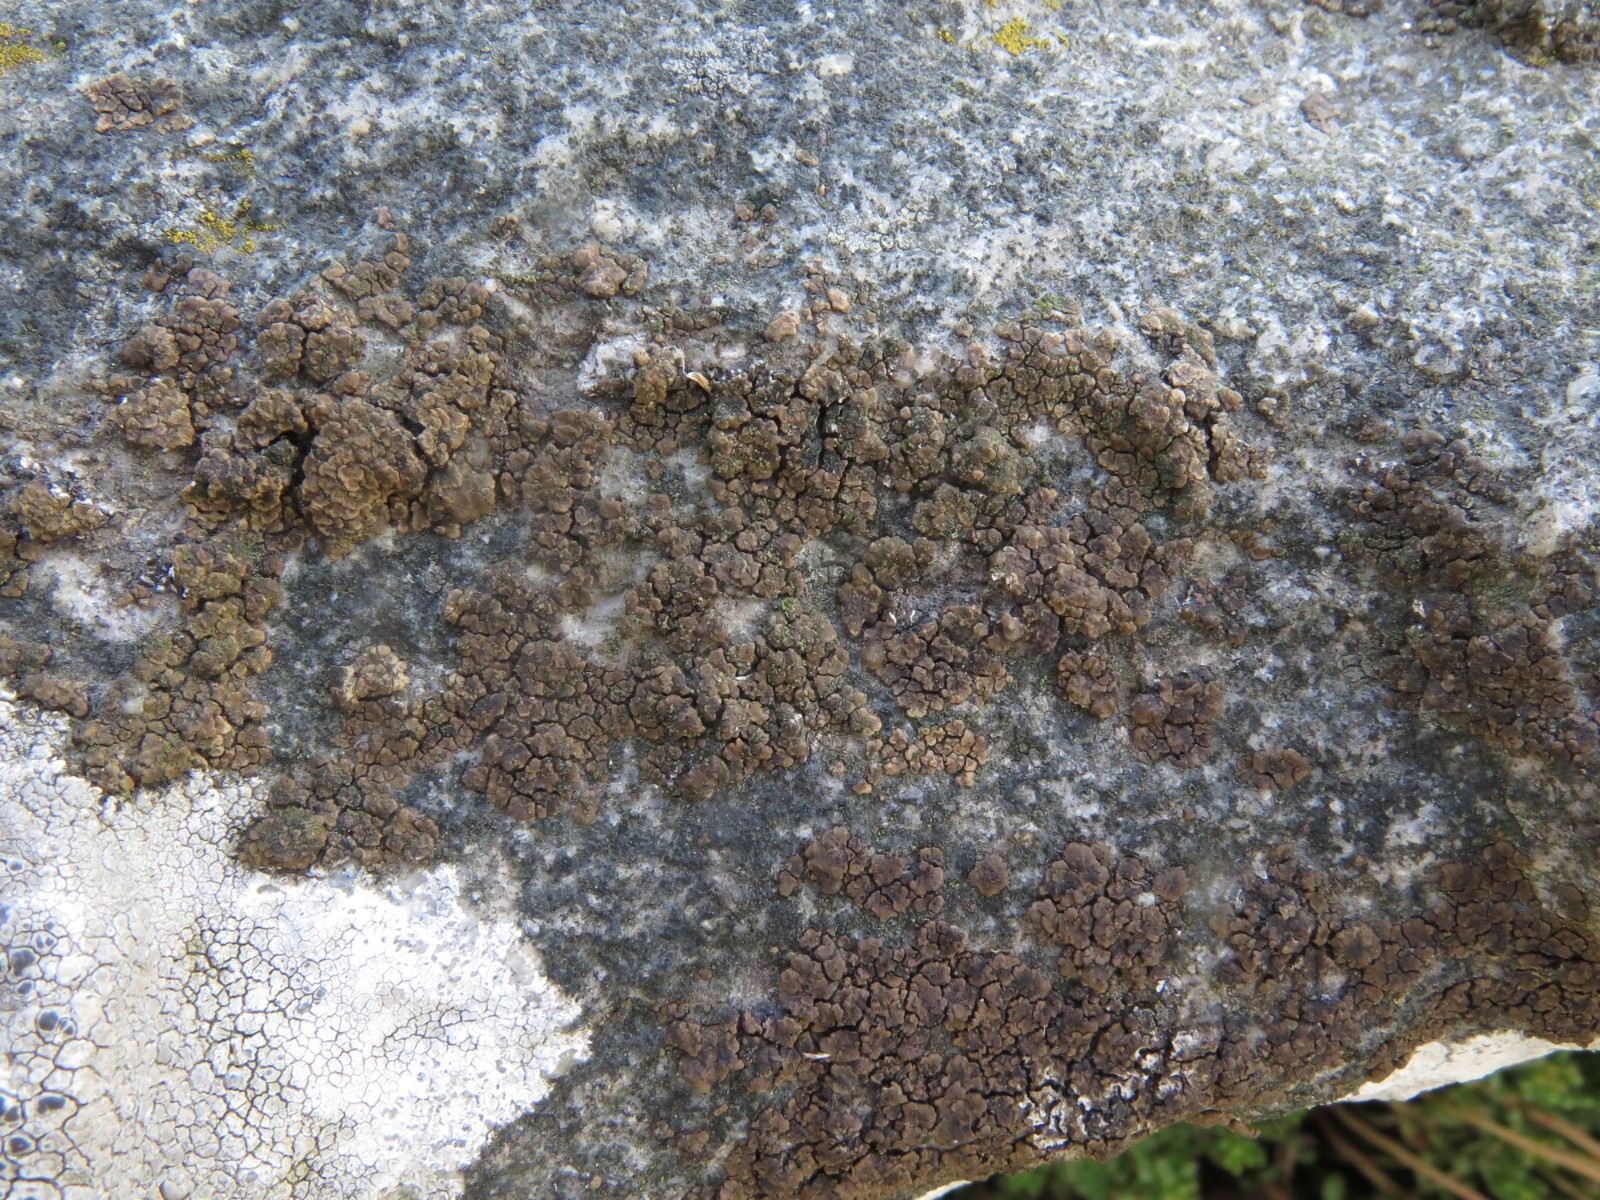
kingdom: Fungi
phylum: Ascomycota
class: Lecanoromycetes
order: Acarosporales
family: Acarosporaceae
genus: Acarospora
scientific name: Acarospora fuscata
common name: brun småsporelav
